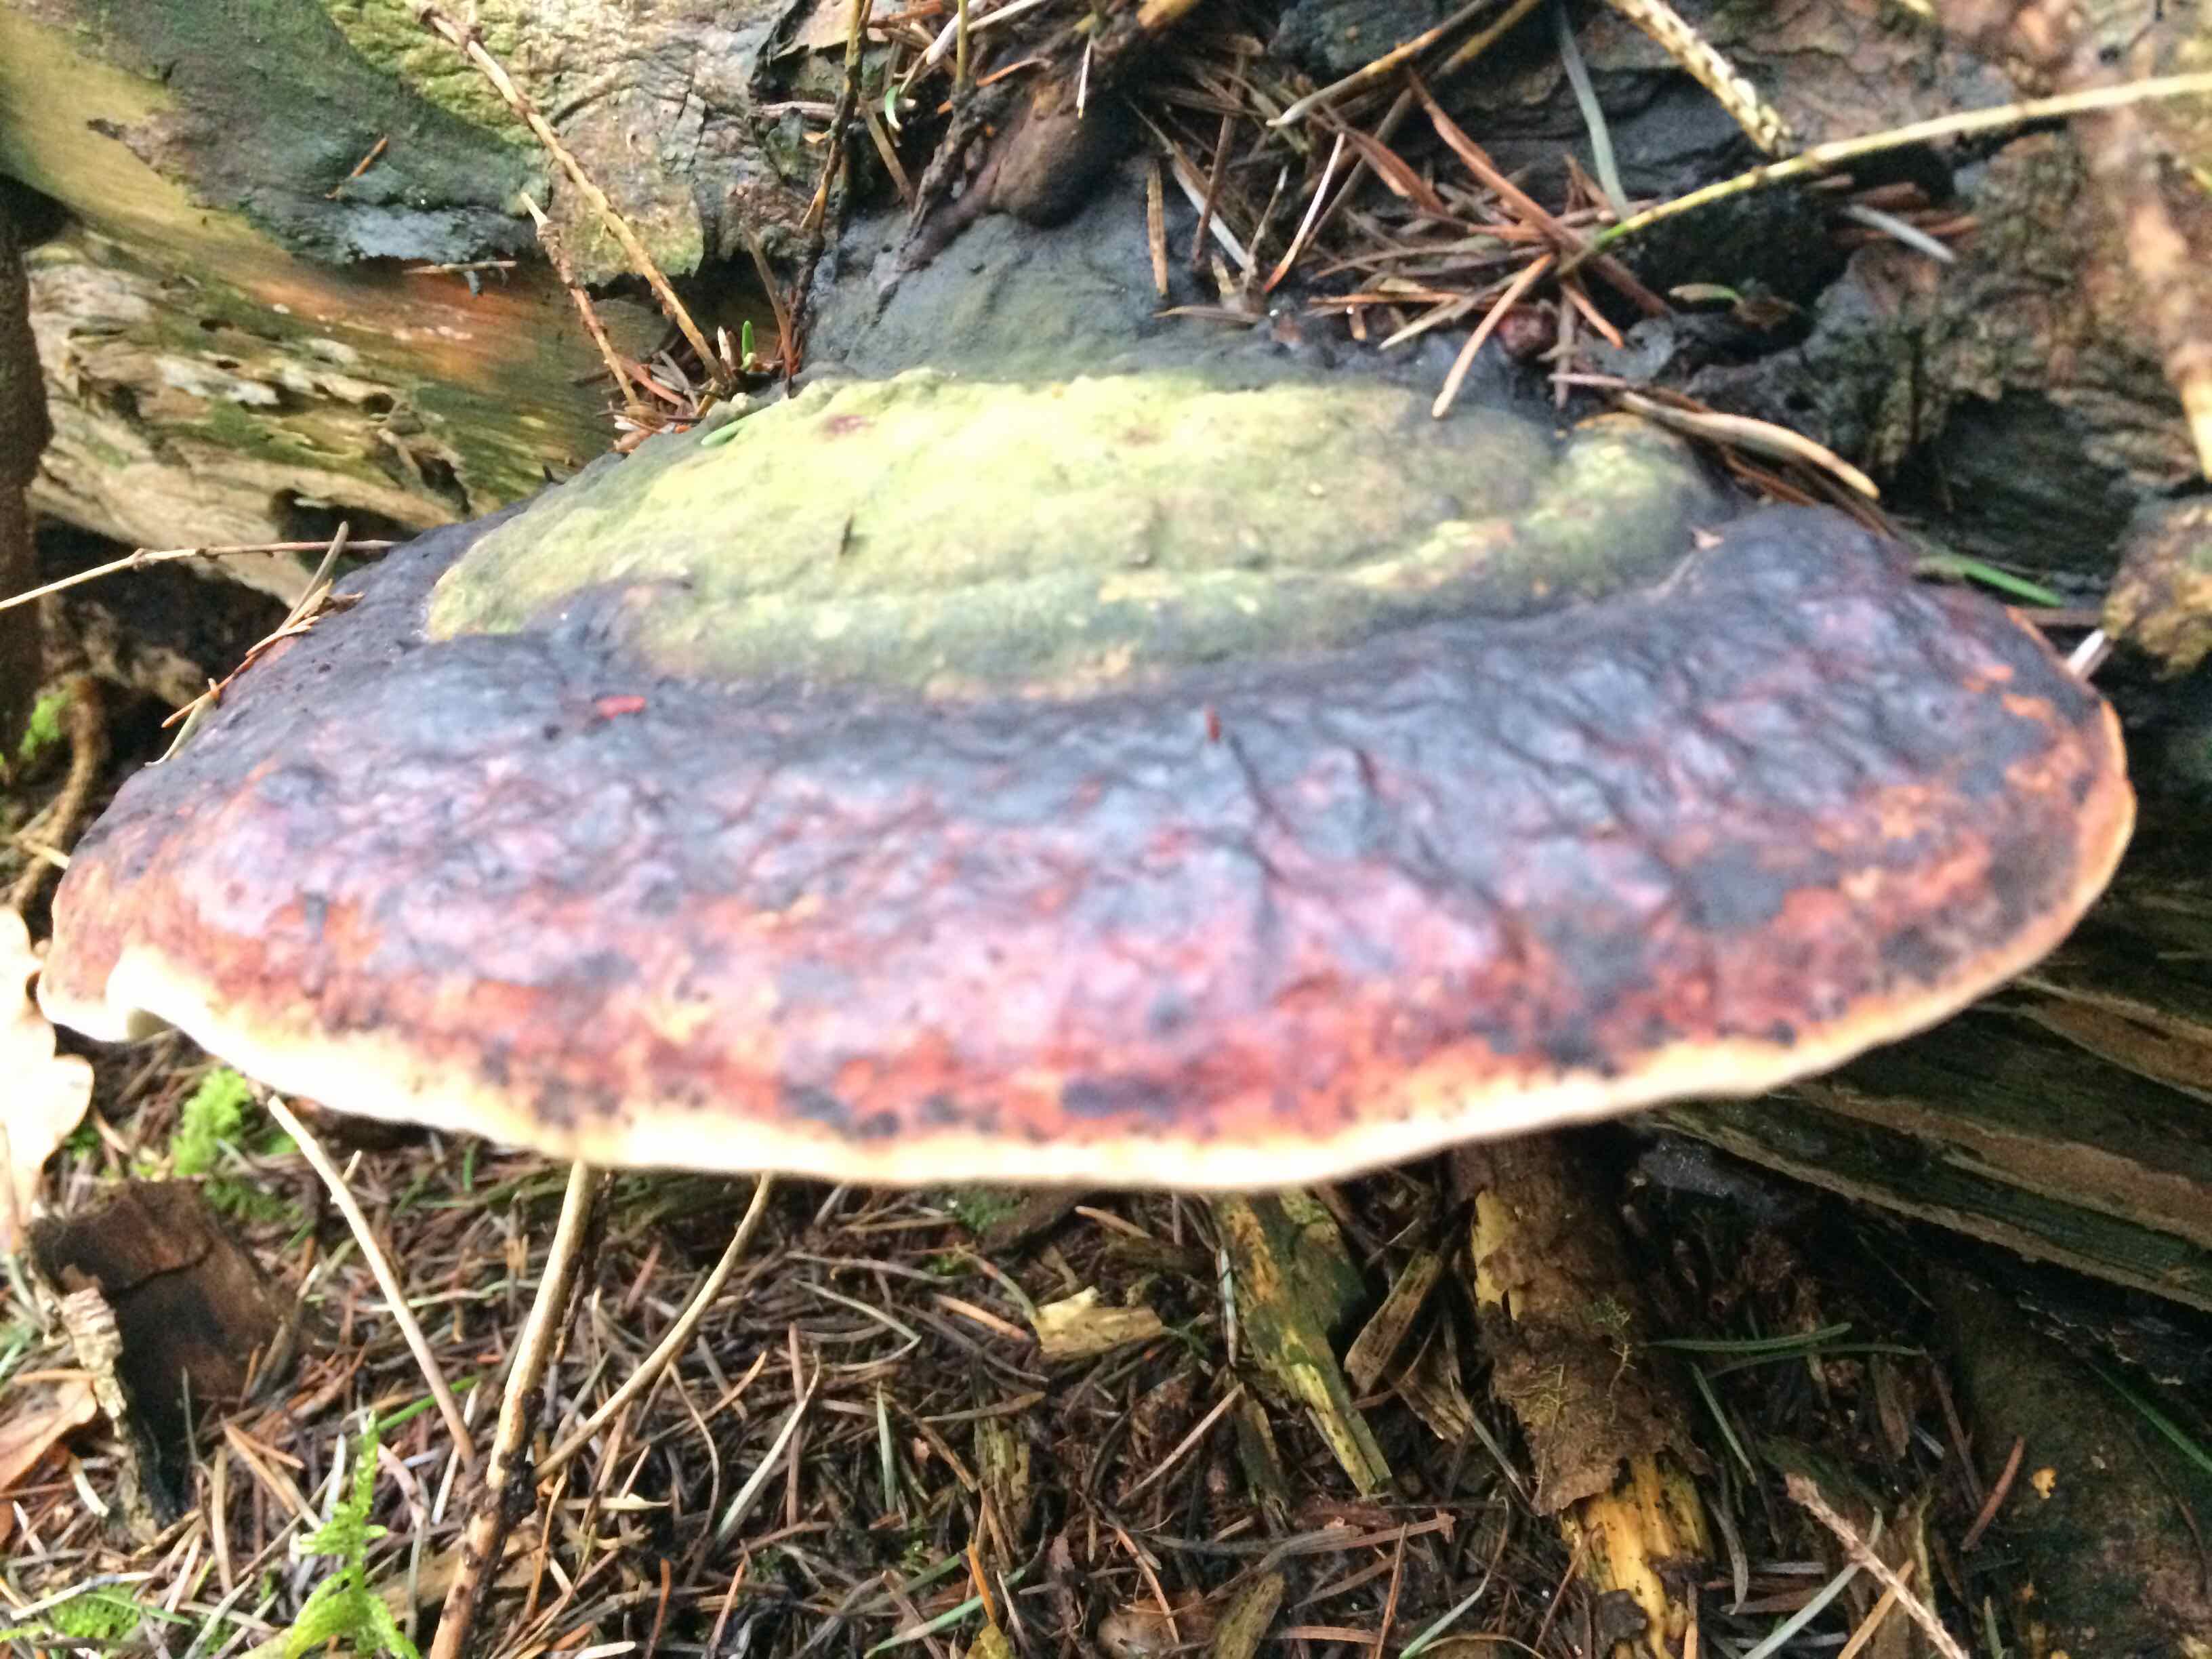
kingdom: Fungi
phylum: Basidiomycota
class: Agaricomycetes
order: Polyporales
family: Fomitopsidaceae
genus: Fomitopsis
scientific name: Fomitopsis pinicola
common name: randbæltet hovporesvamp
